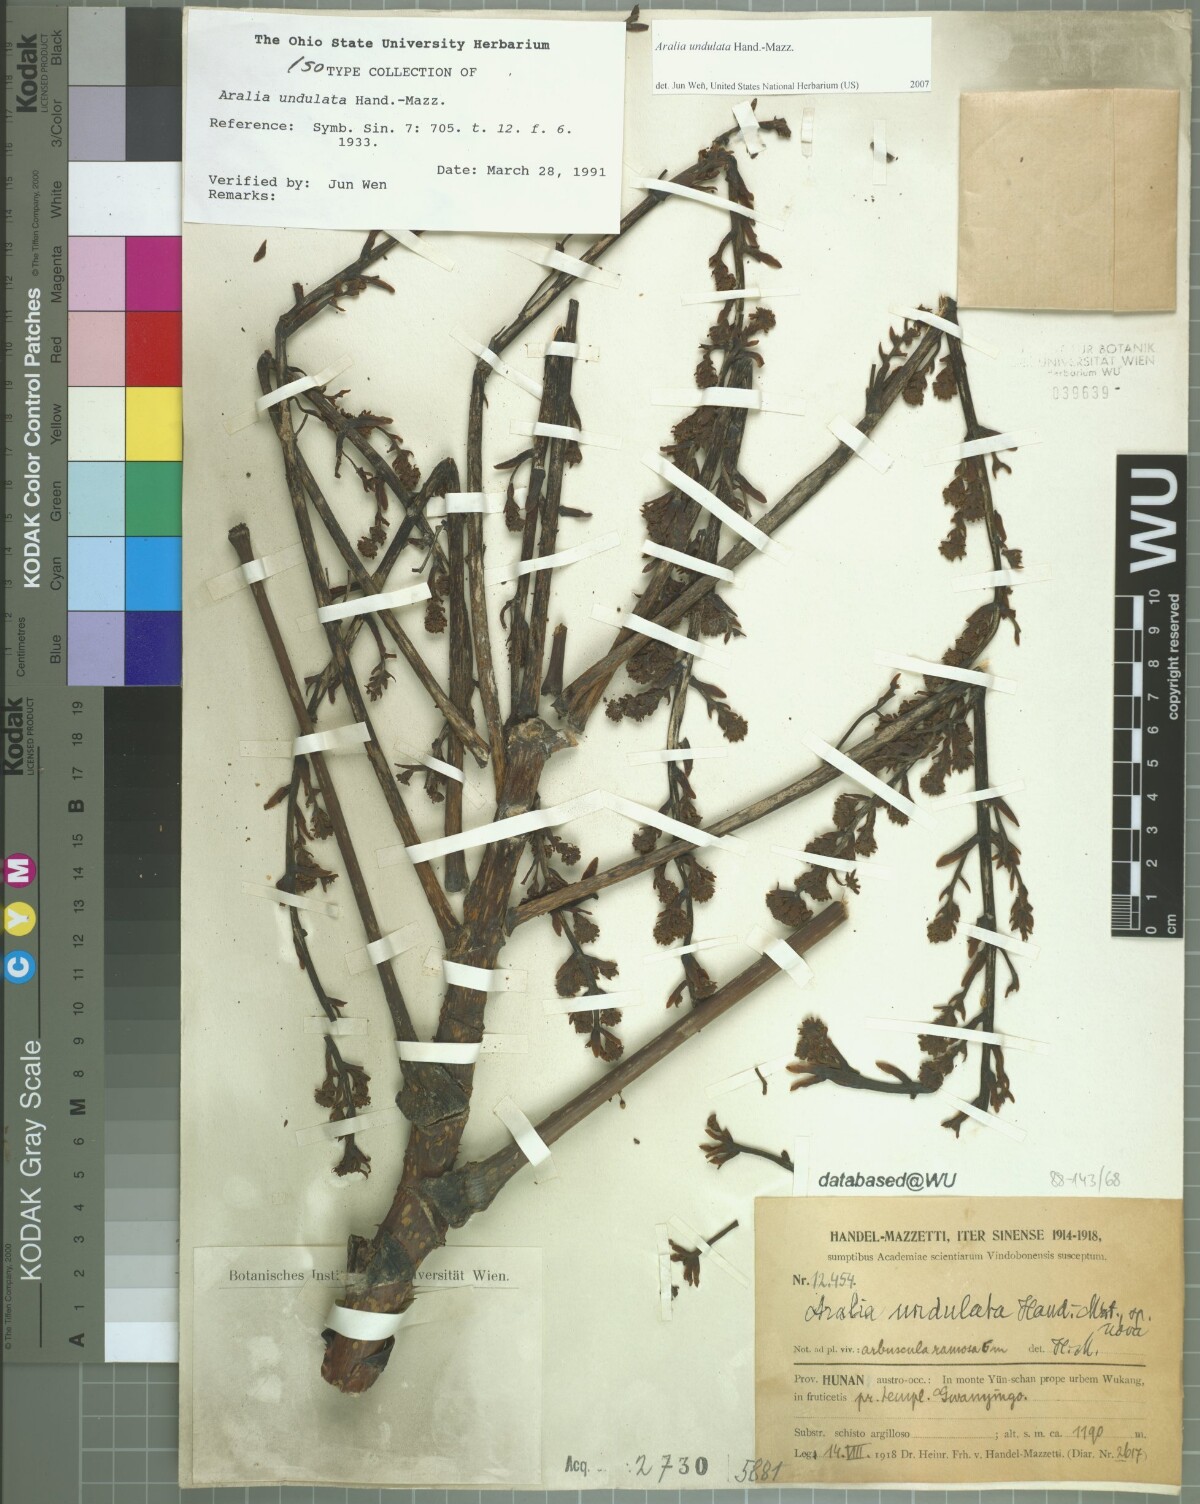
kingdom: Plantae
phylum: Tracheophyta
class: Magnoliopsida
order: Apiales
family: Araliaceae
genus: Aralia
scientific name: Aralia undulata
